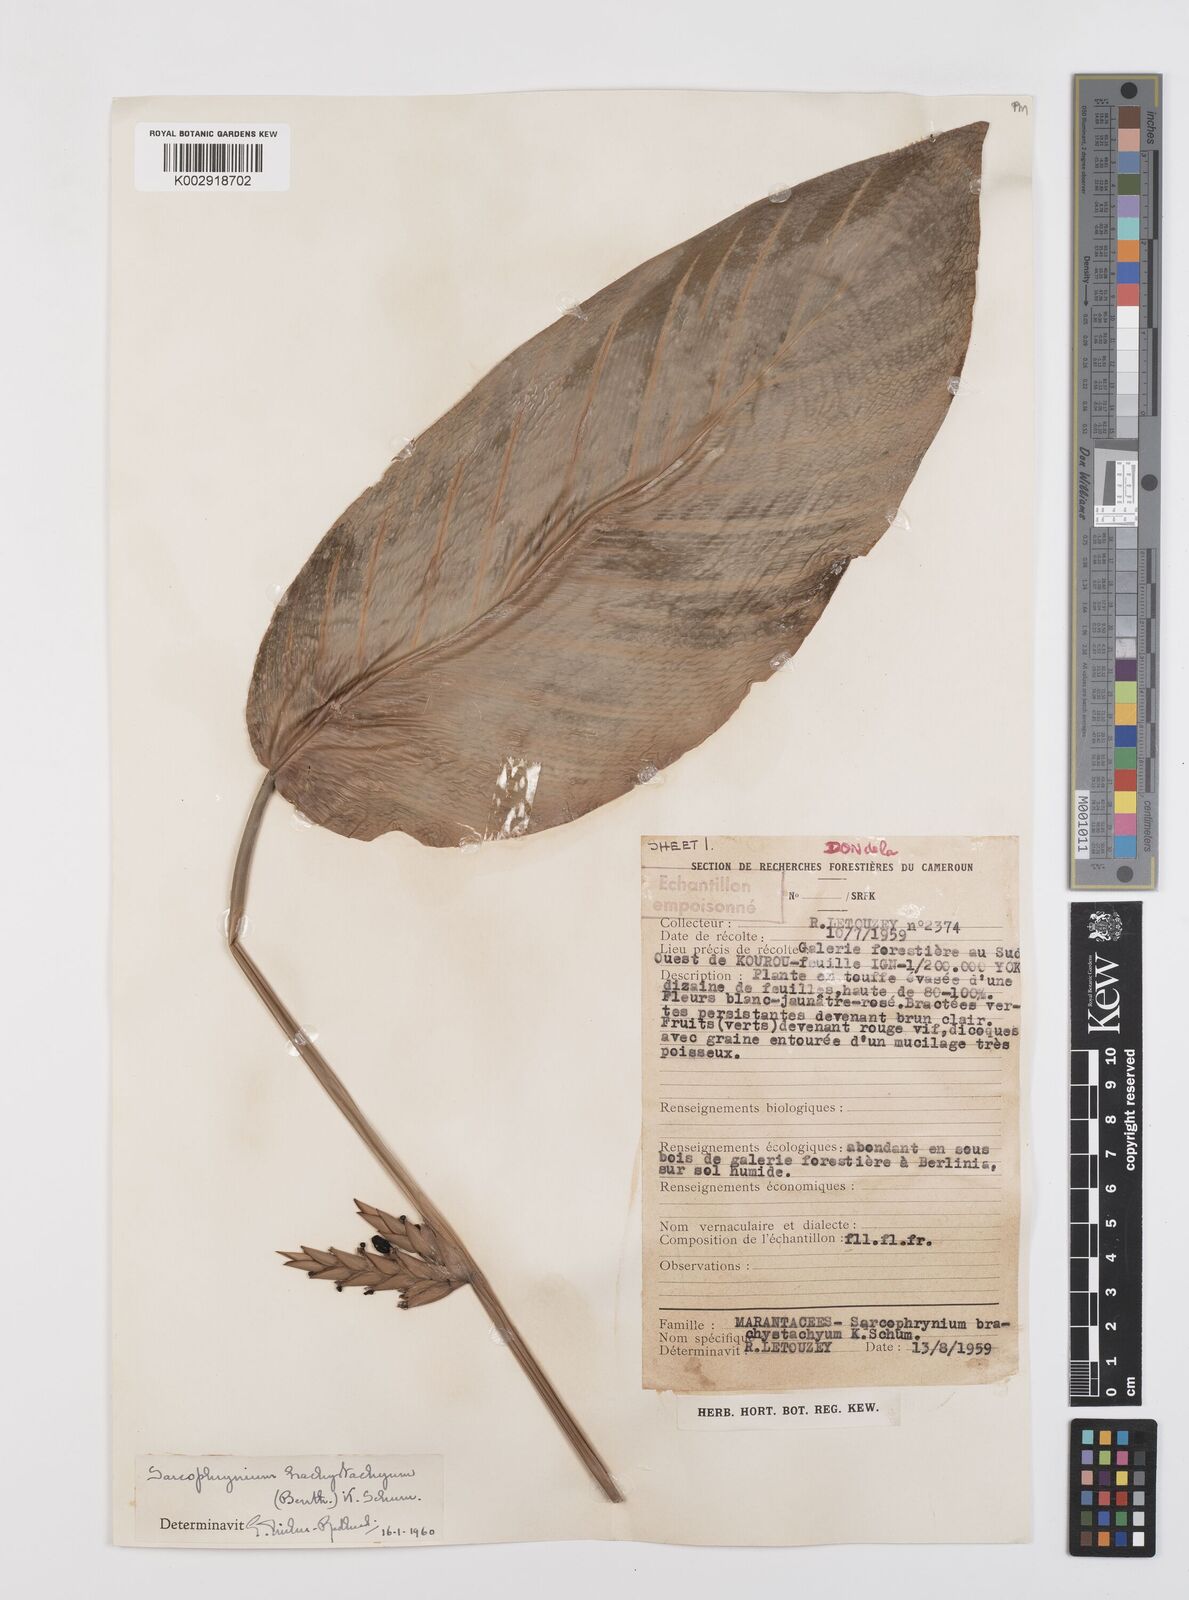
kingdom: Plantae
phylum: Tracheophyta
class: Liliopsida
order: Zingiberales
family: Marantaceae
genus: Sarcophrynium
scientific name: Sarcophrynium brachystachyum
